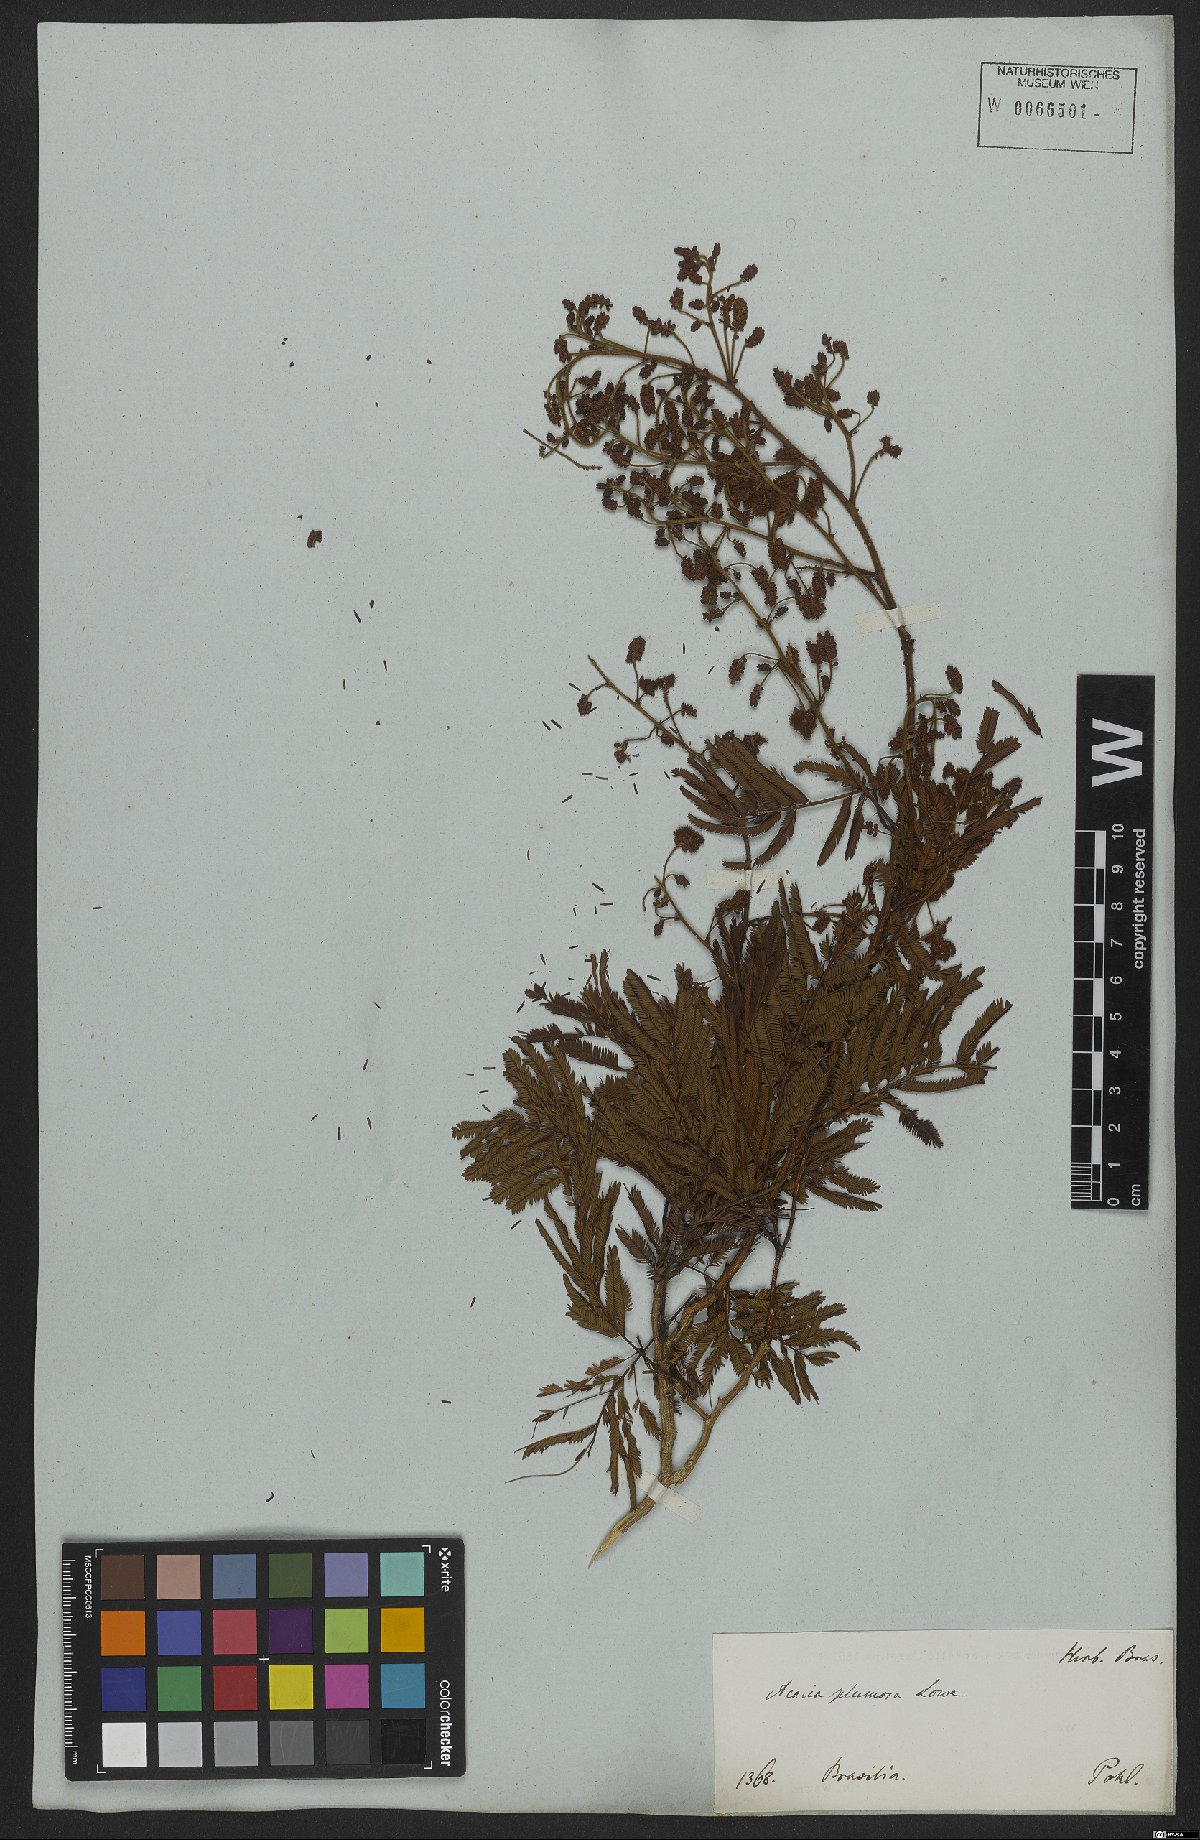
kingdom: Plantae
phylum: Tracheophyta
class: Magnoliopsida
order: Fabales
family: Fabaceae
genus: Senegalia
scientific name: Senegalia lowei
